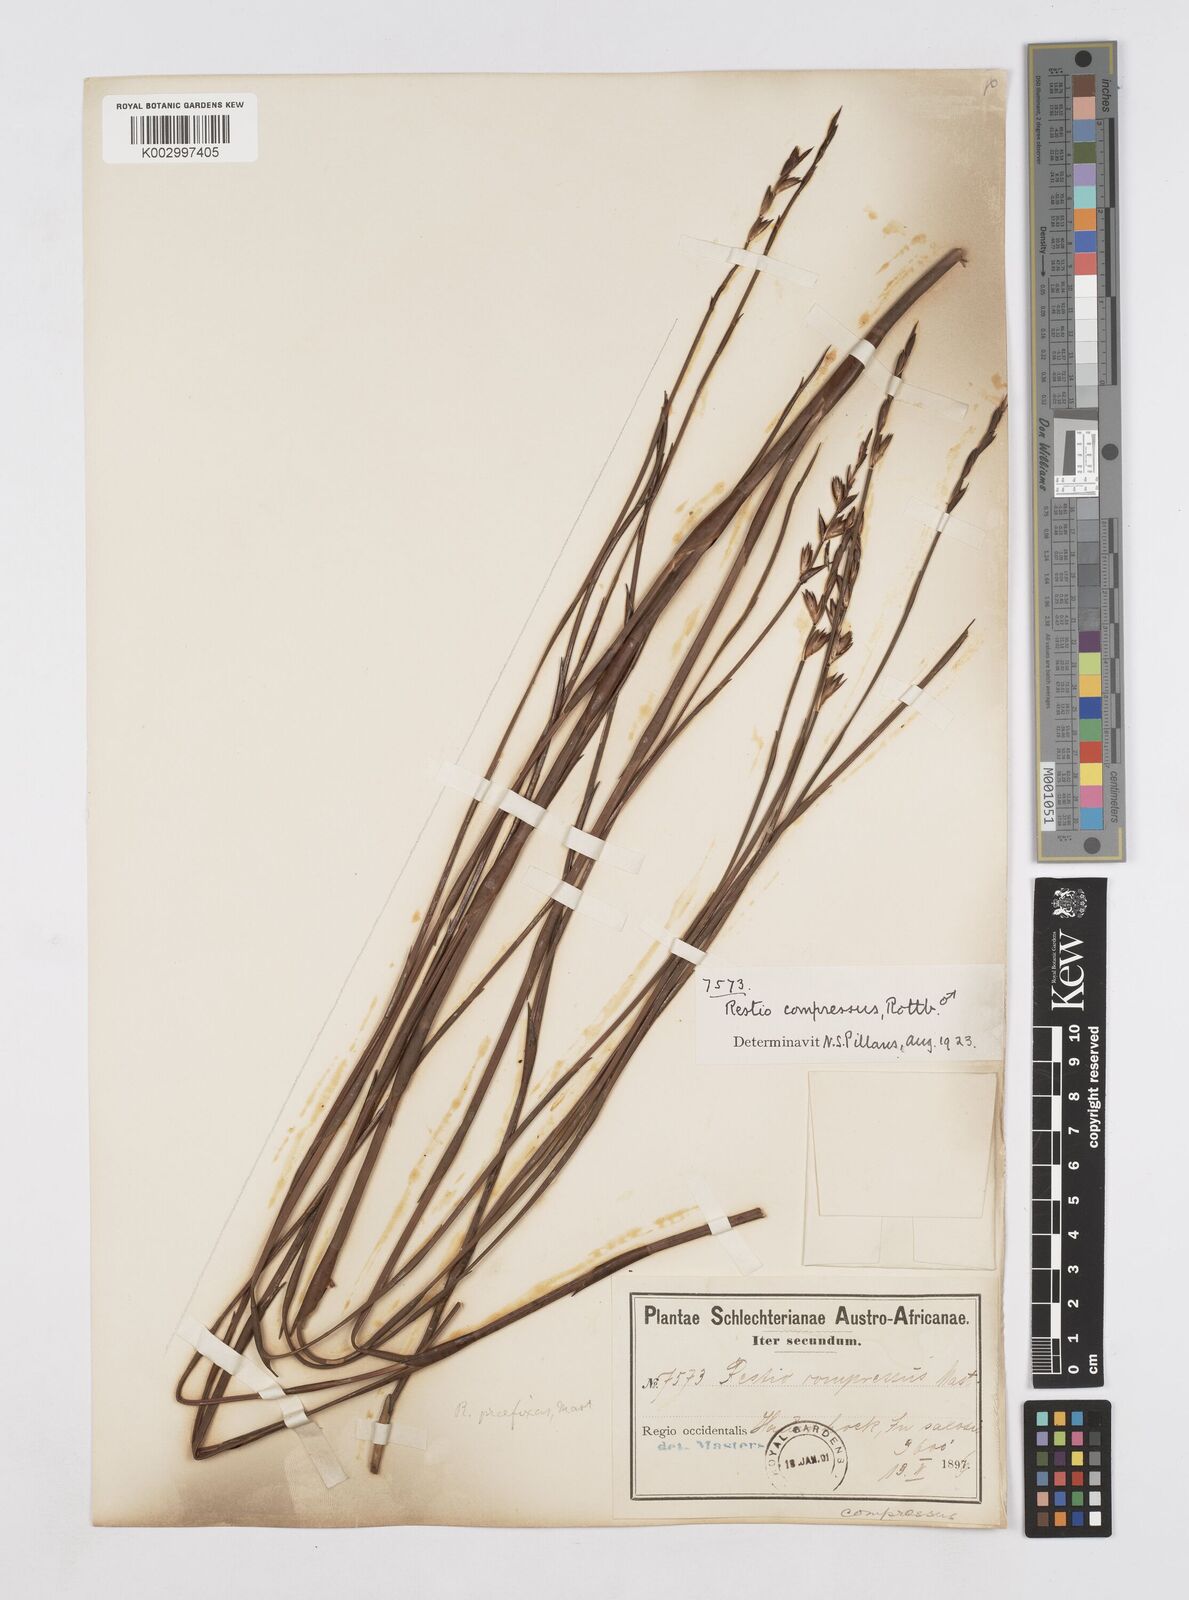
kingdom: Plantae
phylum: Tracheophyta
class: Liliopsida
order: Poales
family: Restionaceae
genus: Platycaulos
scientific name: Platycaulos compressus
